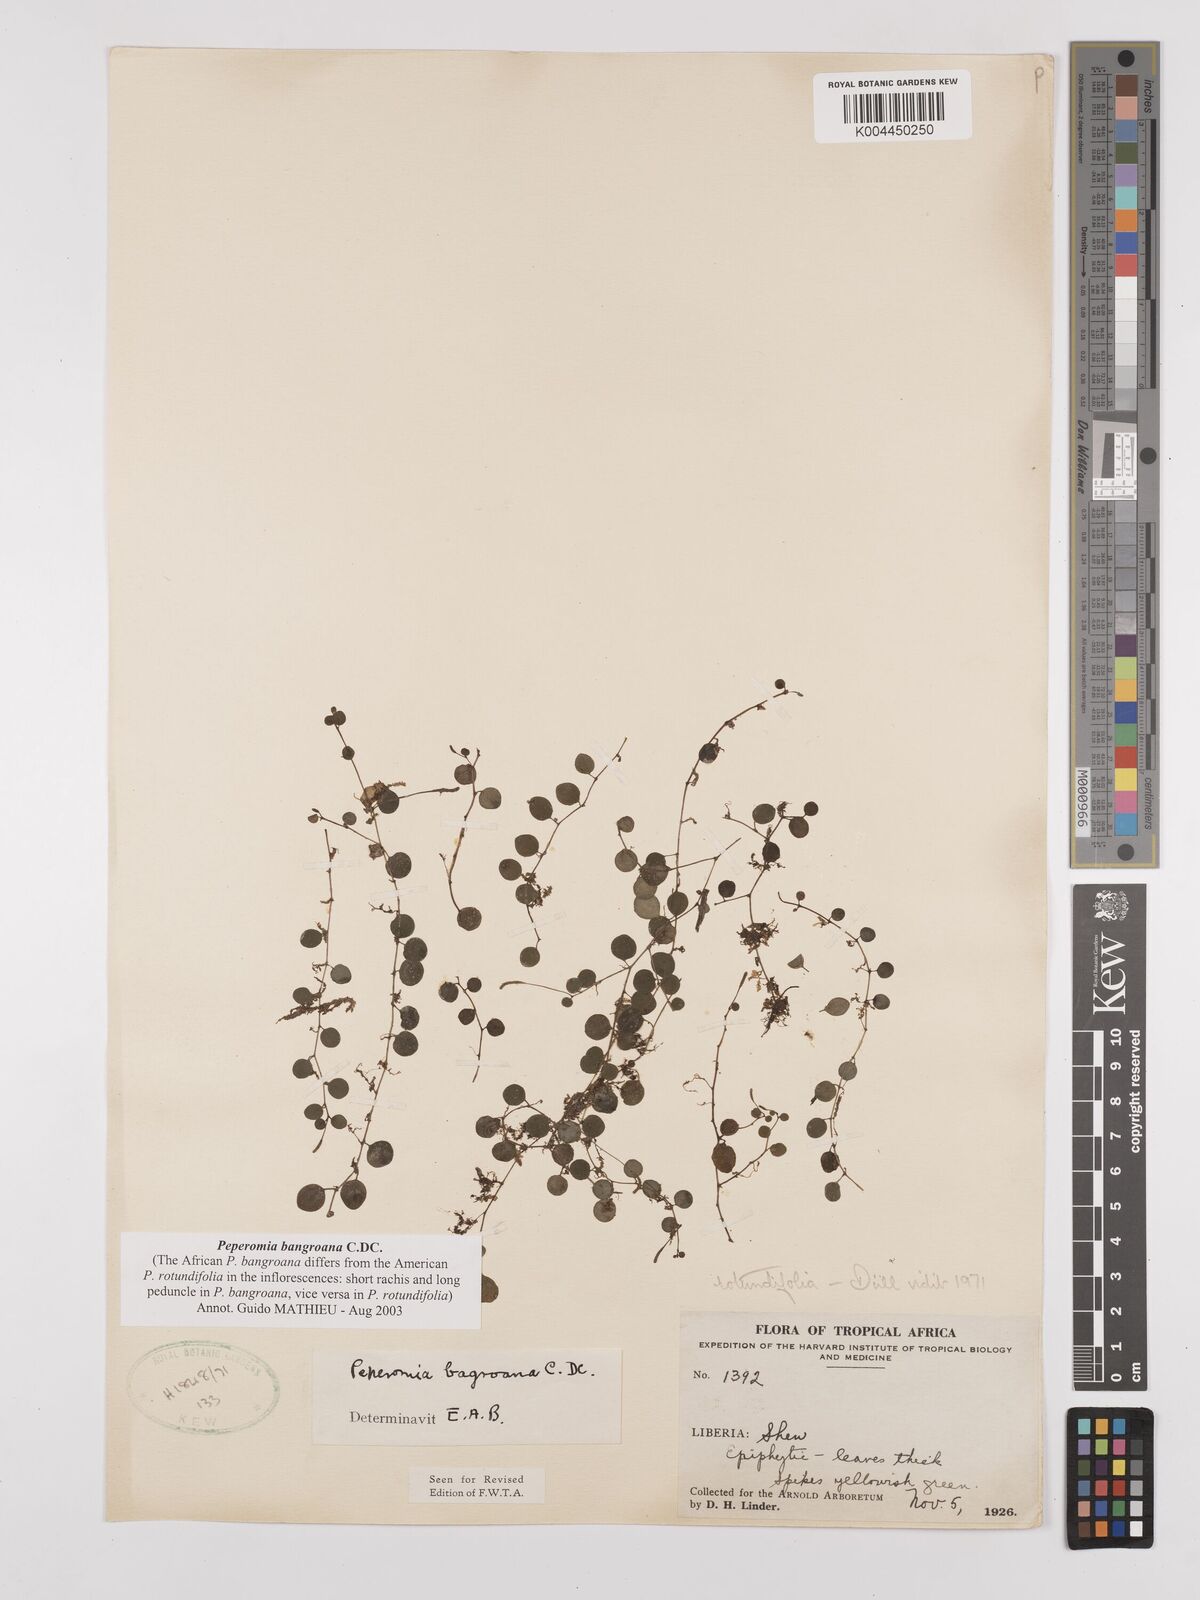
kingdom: Plantae
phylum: Tracheophyta
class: Magnoliopsida
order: Piperales
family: Piperaceae
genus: Peperomia
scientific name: Peperomia bangroana
